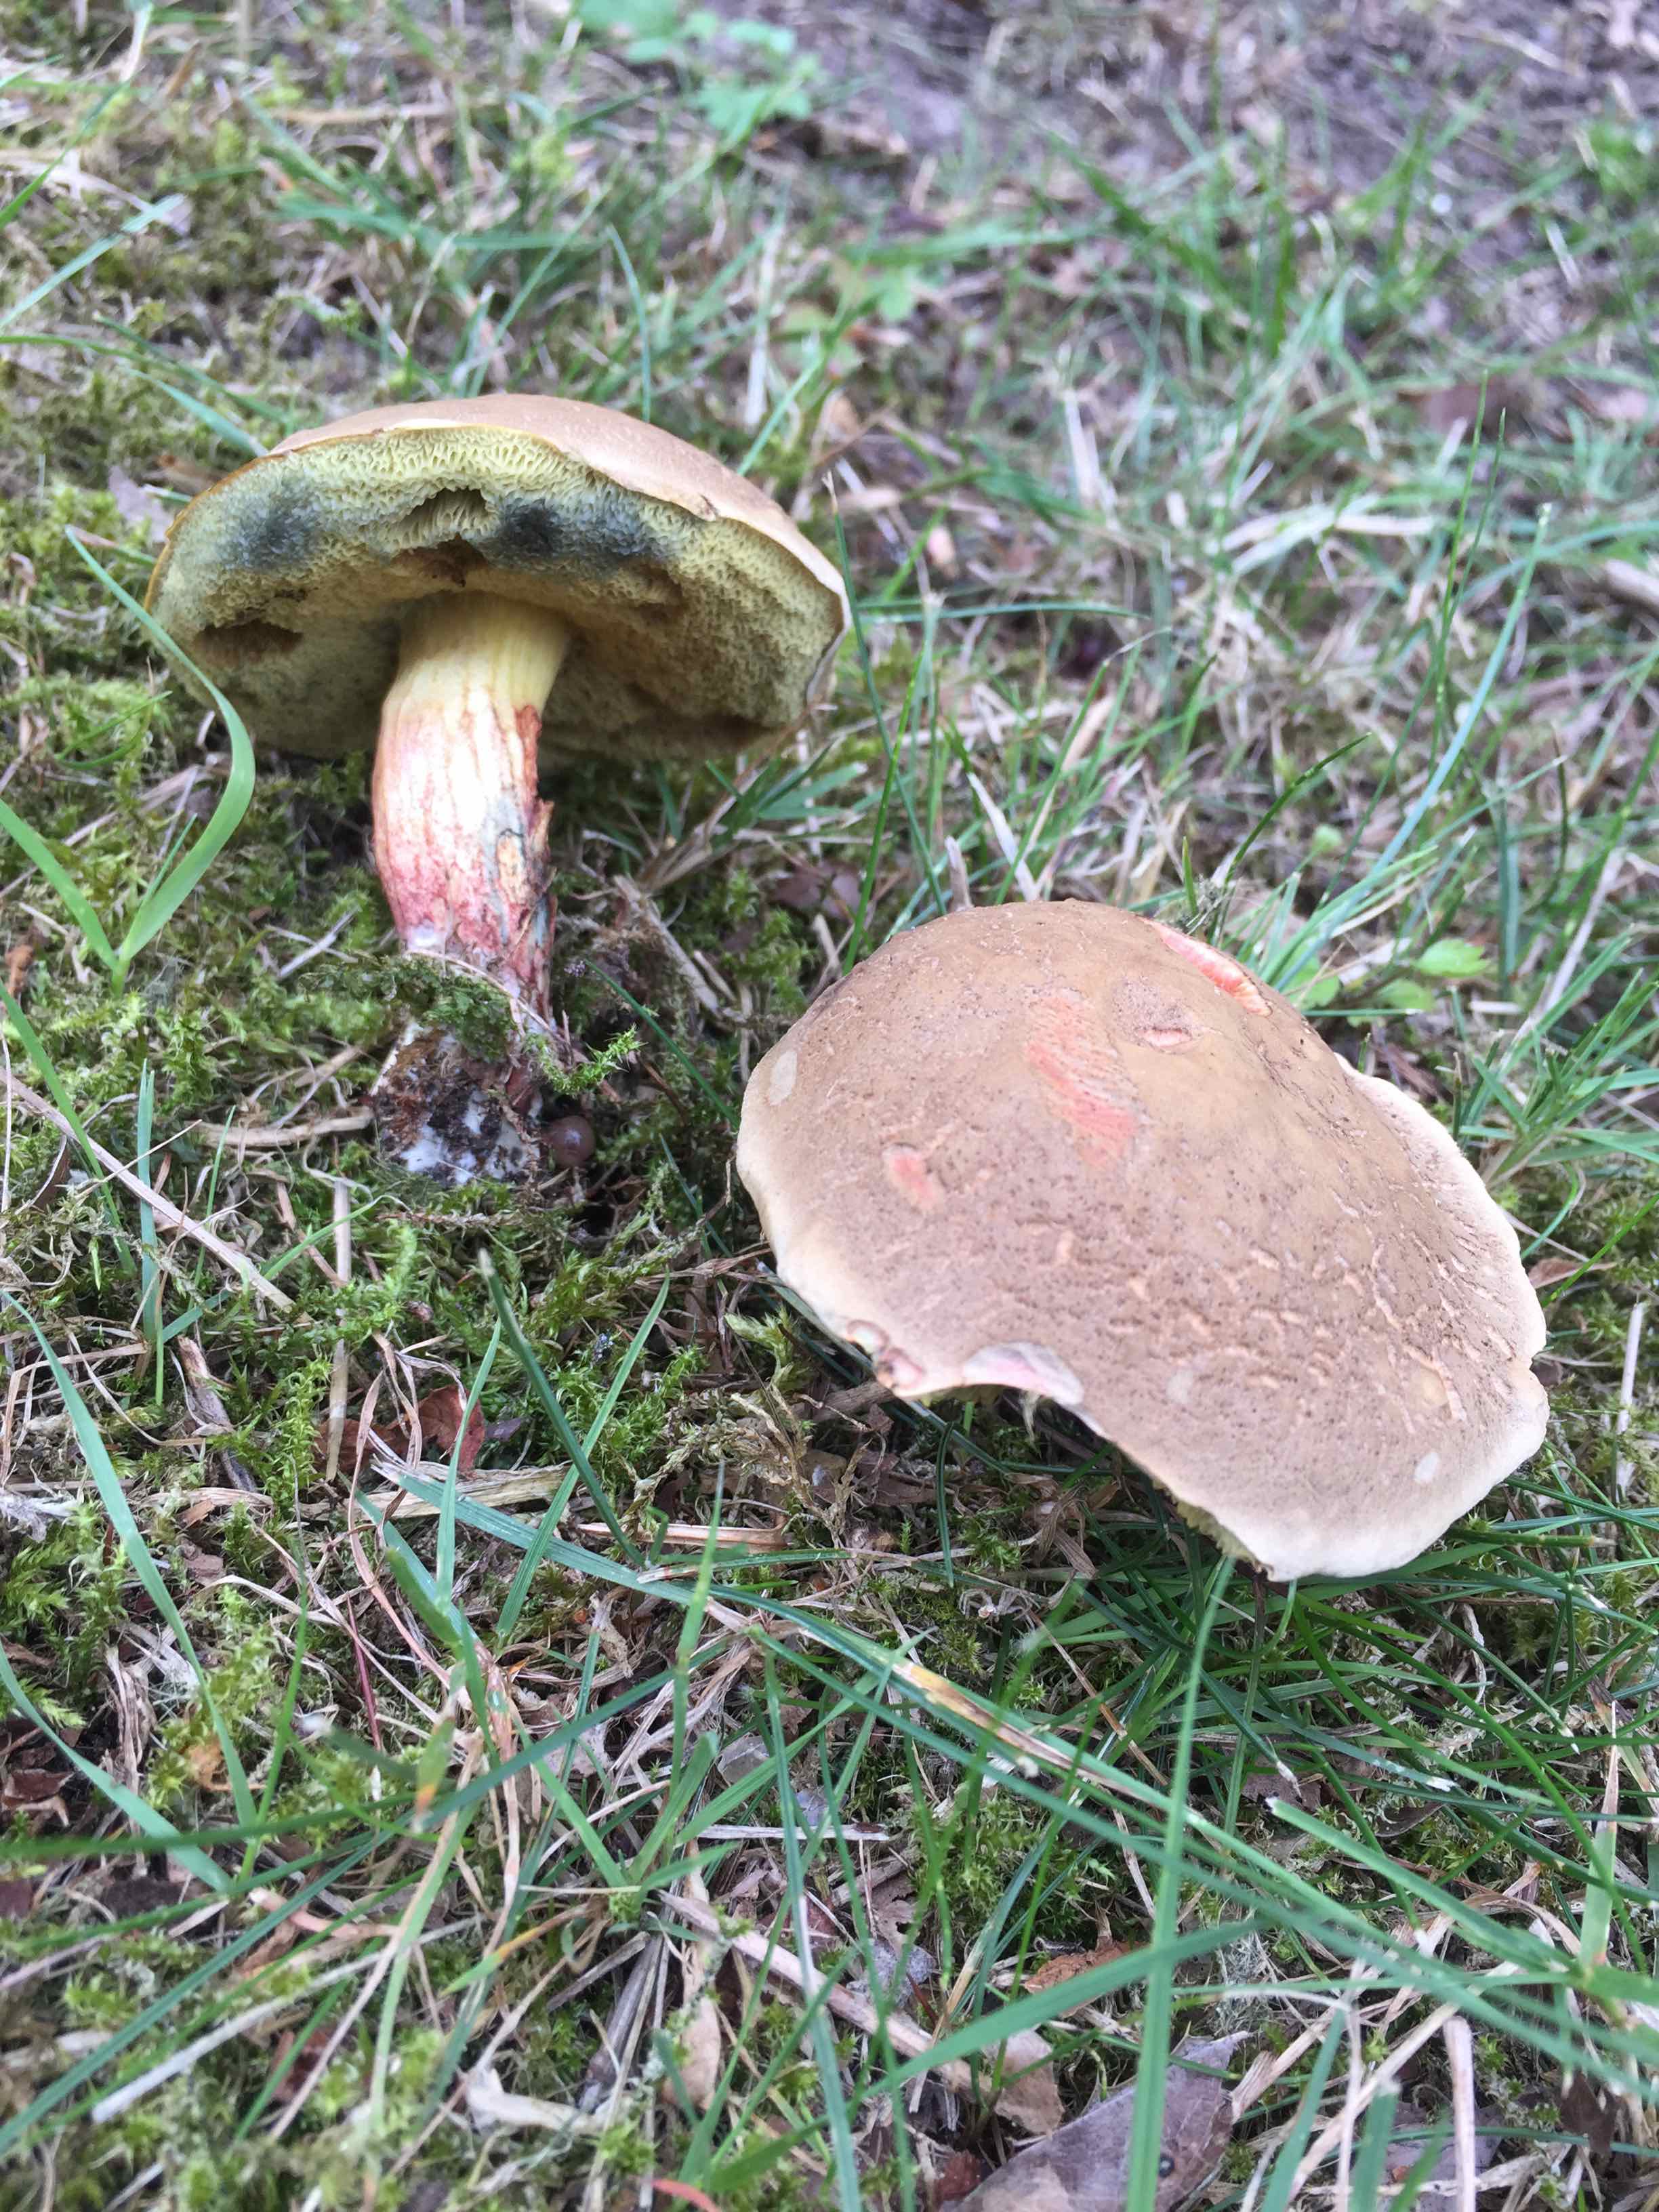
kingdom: Fungi
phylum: Basidiomycota
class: Agaricomycetes
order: Boletales
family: Boletaceae
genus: Xerocomellus
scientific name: Xerocomellus cisalpinus
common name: finsprukken rørhat
